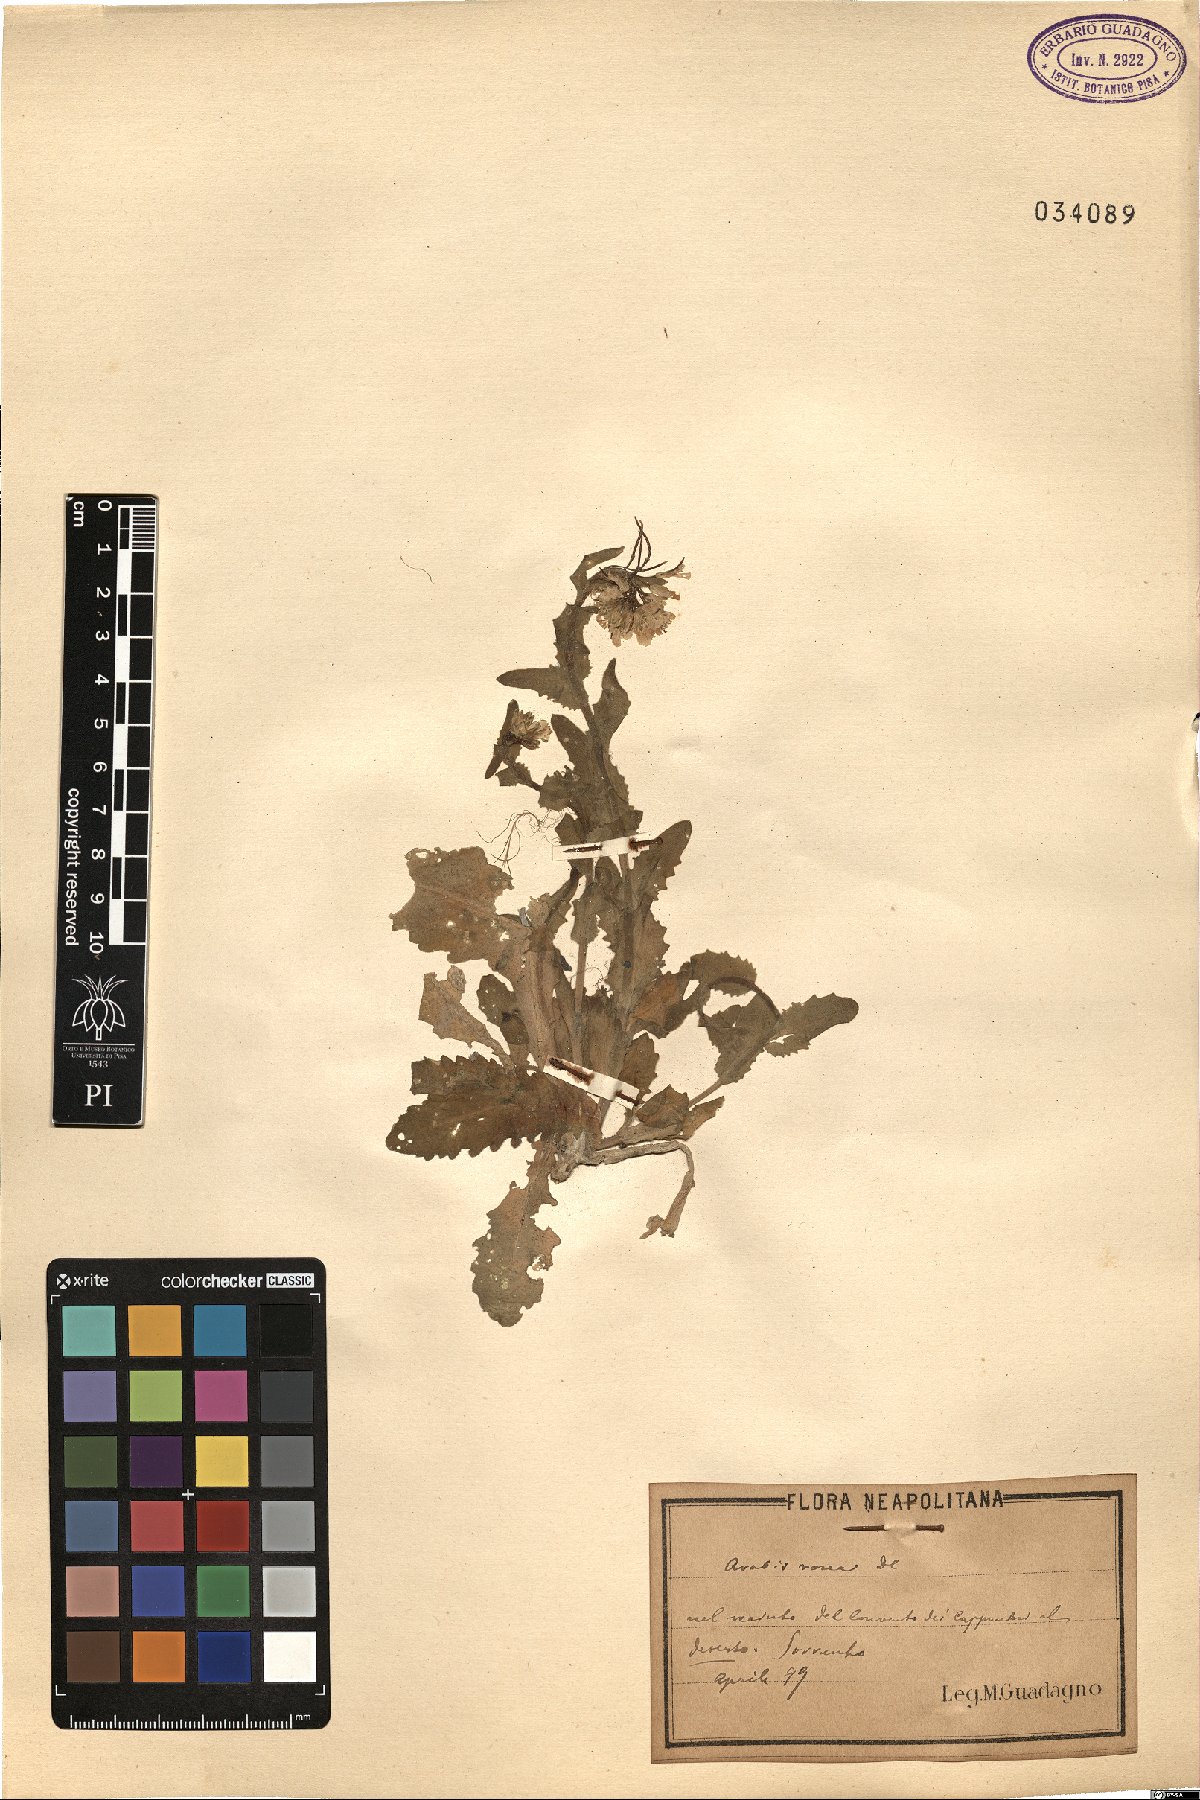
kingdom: Plantae
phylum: Tracheophyta
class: Magnoliopsida
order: Brassicales
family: Brassicaceae
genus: Arabis
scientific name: Arabis collina
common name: Rosy cress
